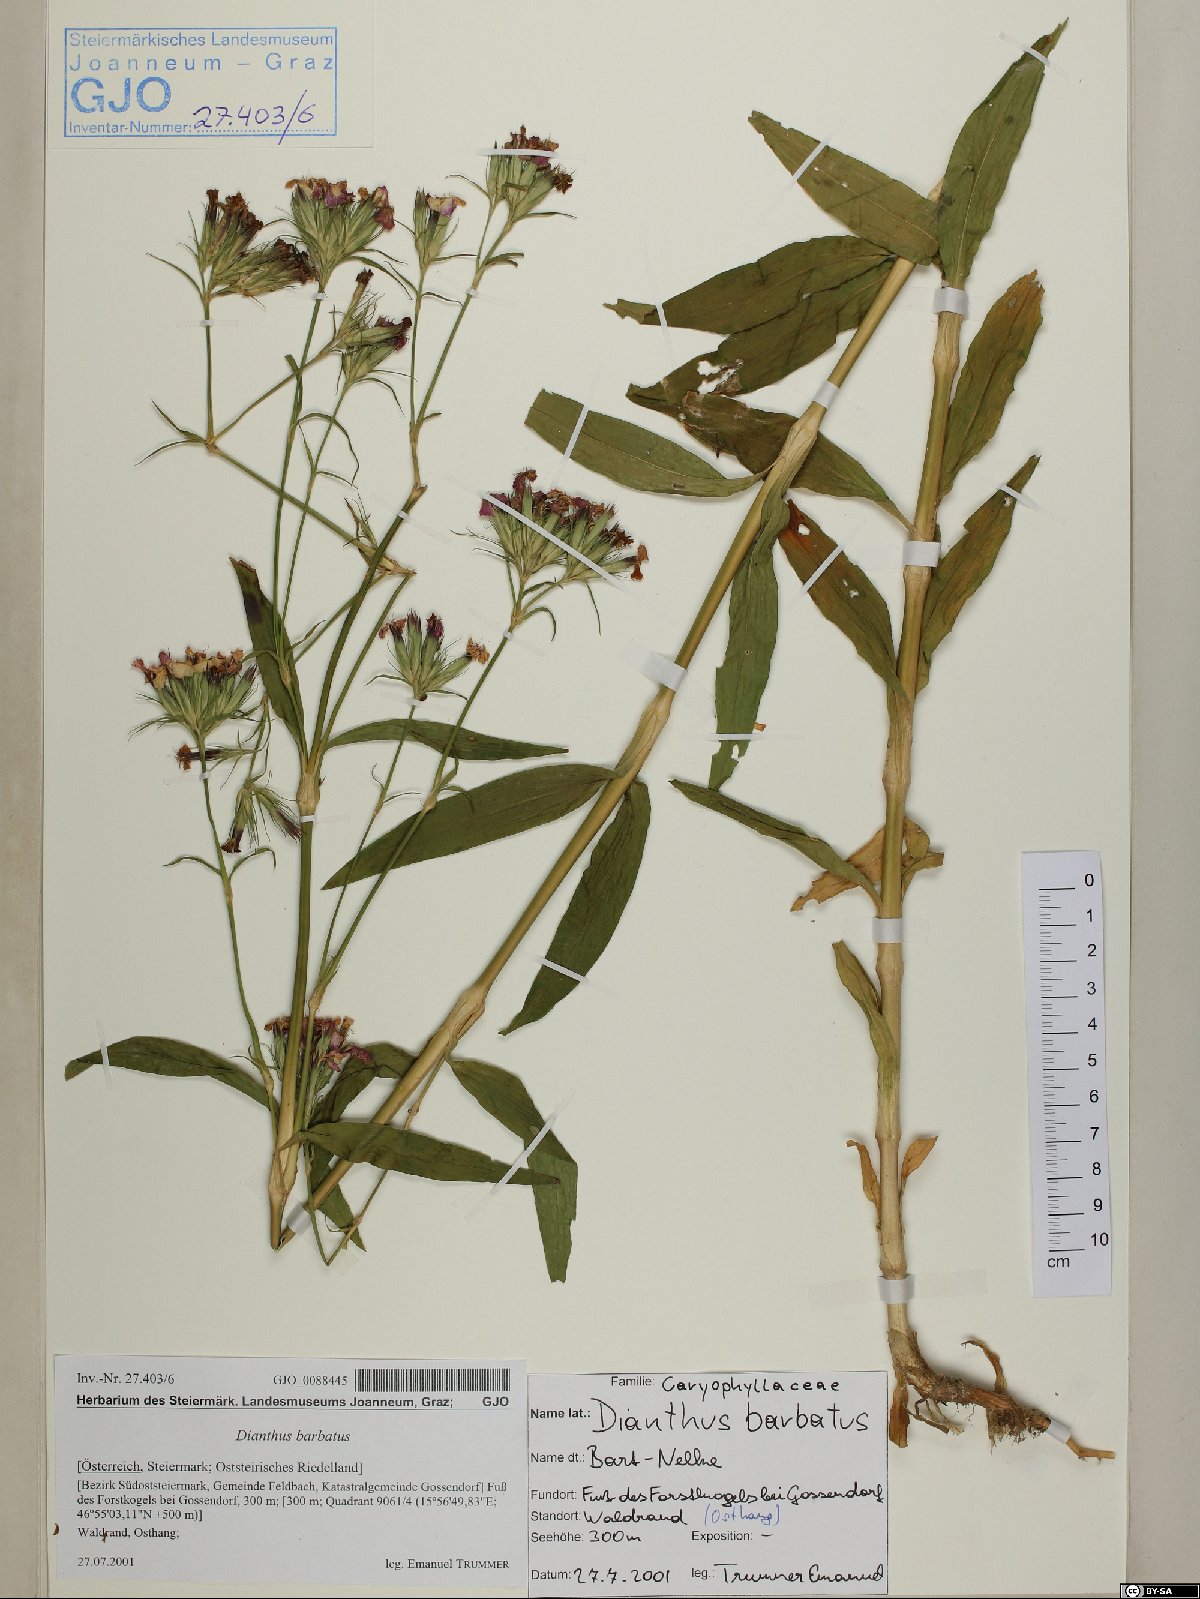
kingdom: Plantae
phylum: Tracheophyta
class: Magnoliopsida
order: Caryophyllales
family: Caryophyllaceae
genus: Dianthus
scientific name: Dianthus barbatus
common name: Sweet-william
